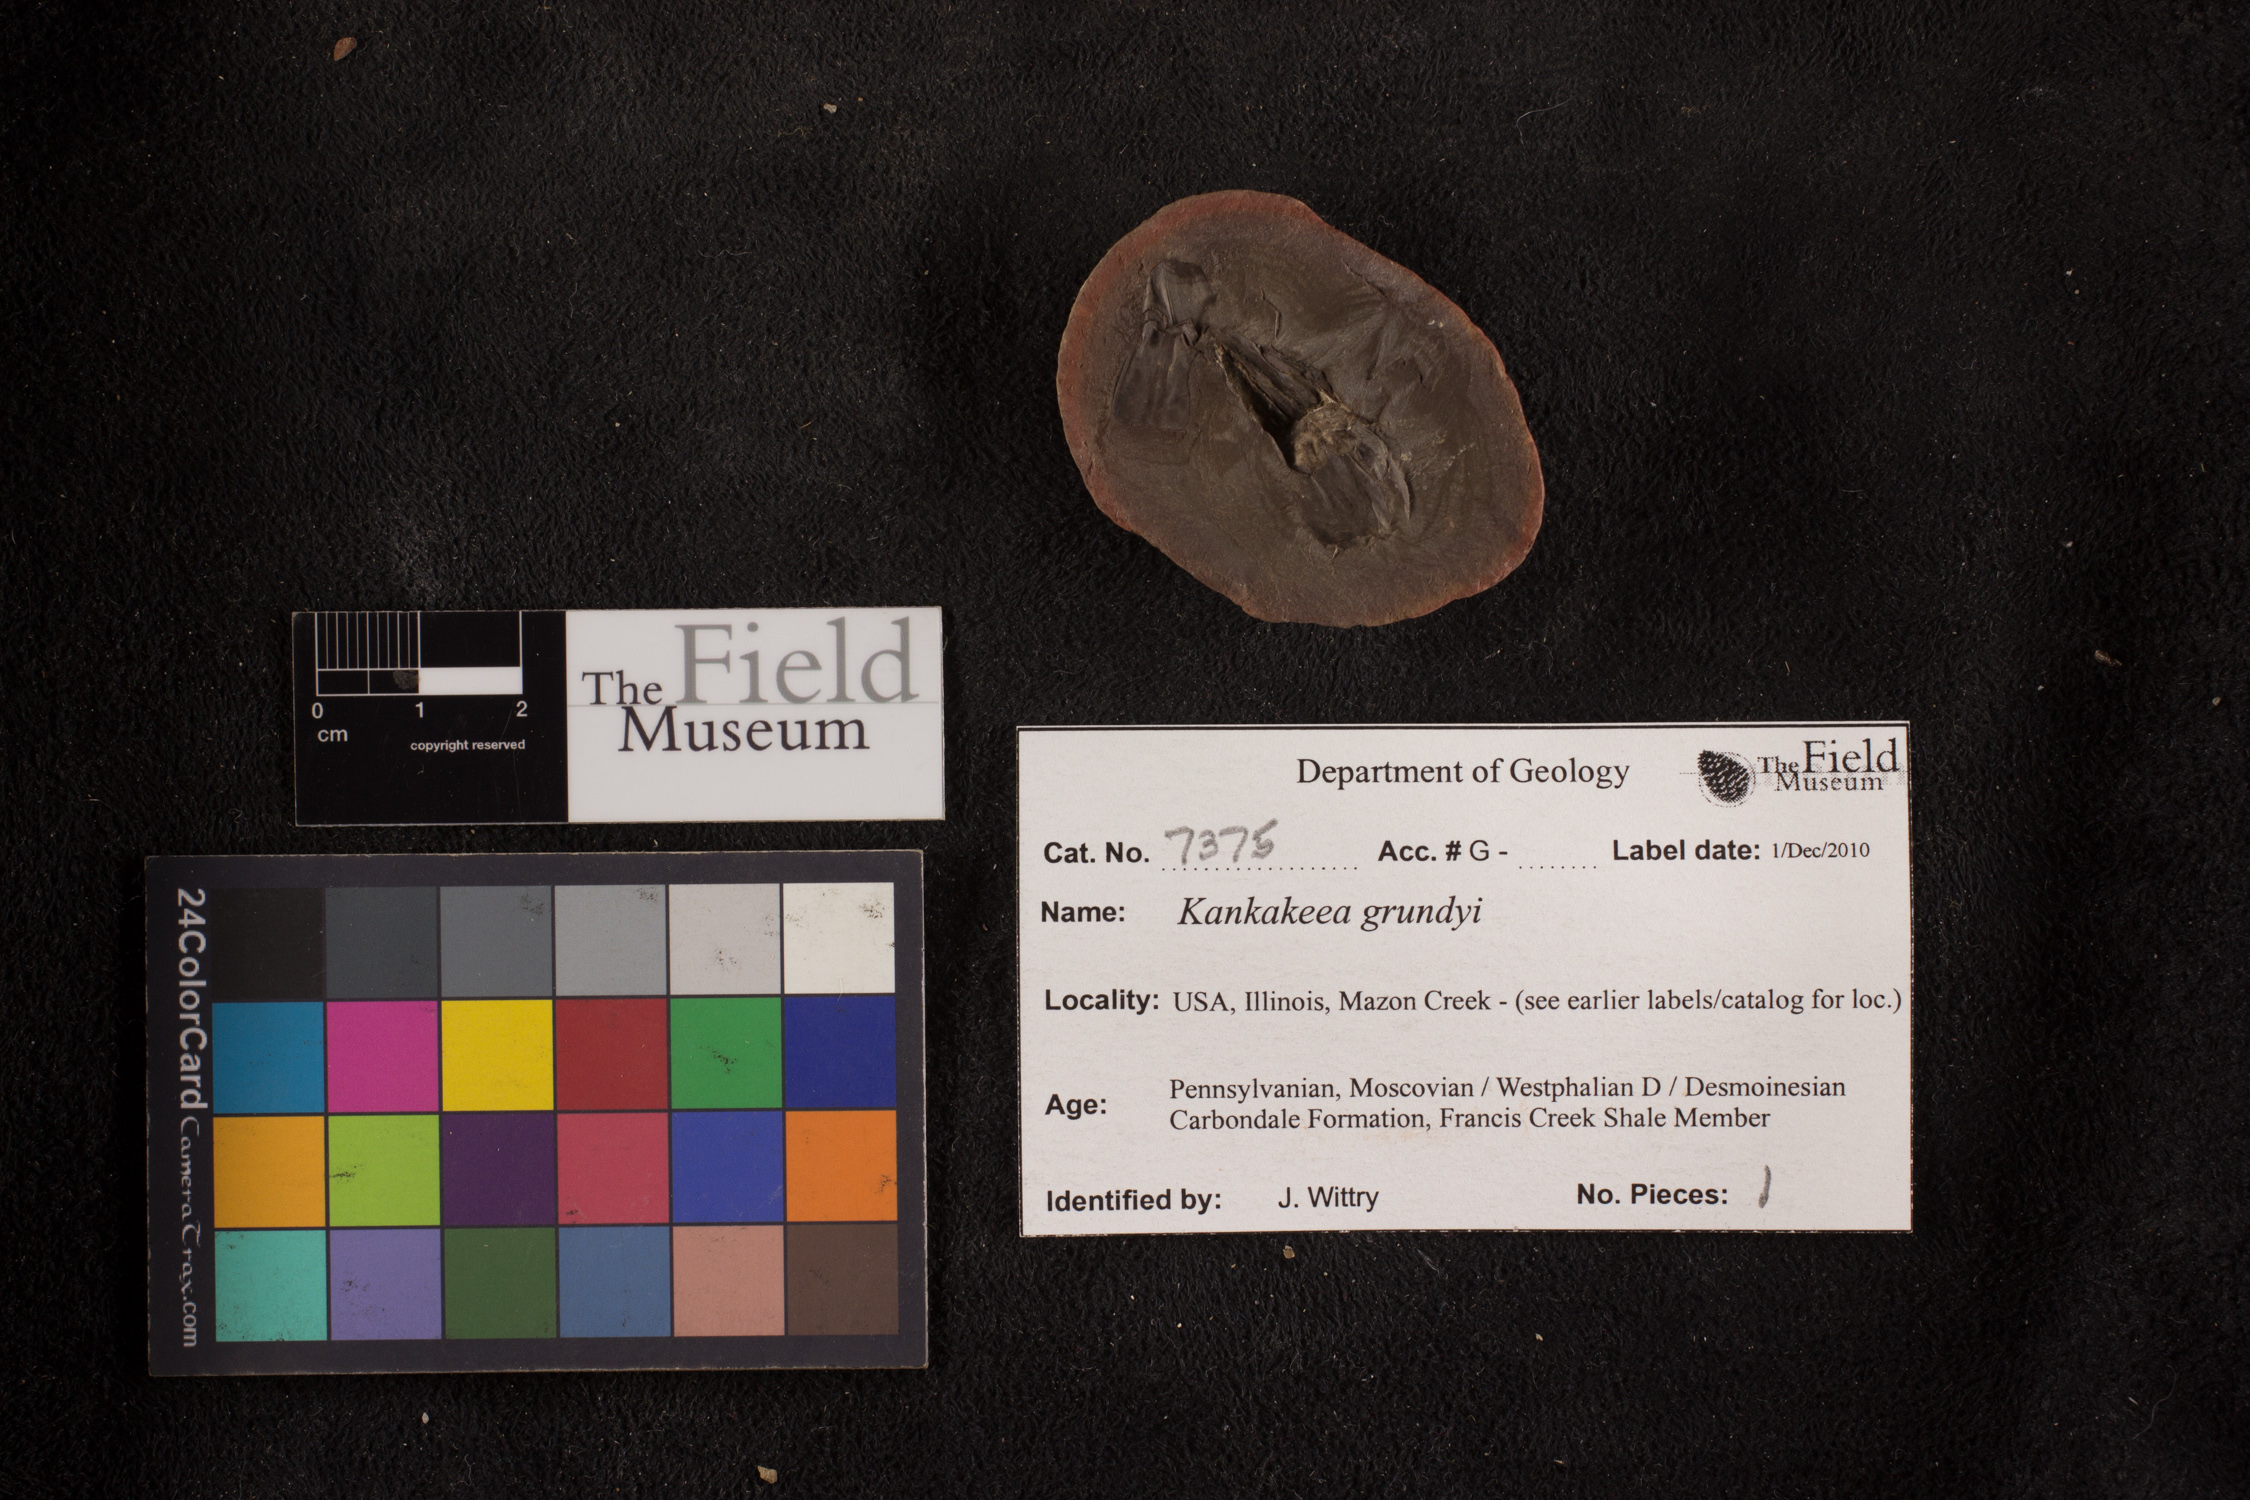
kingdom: Plantae
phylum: Tracheophyta
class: Polypodiopsida
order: Marattiales
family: Marattiaceae
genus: Kankakeea
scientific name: Kankakeea grundyi
